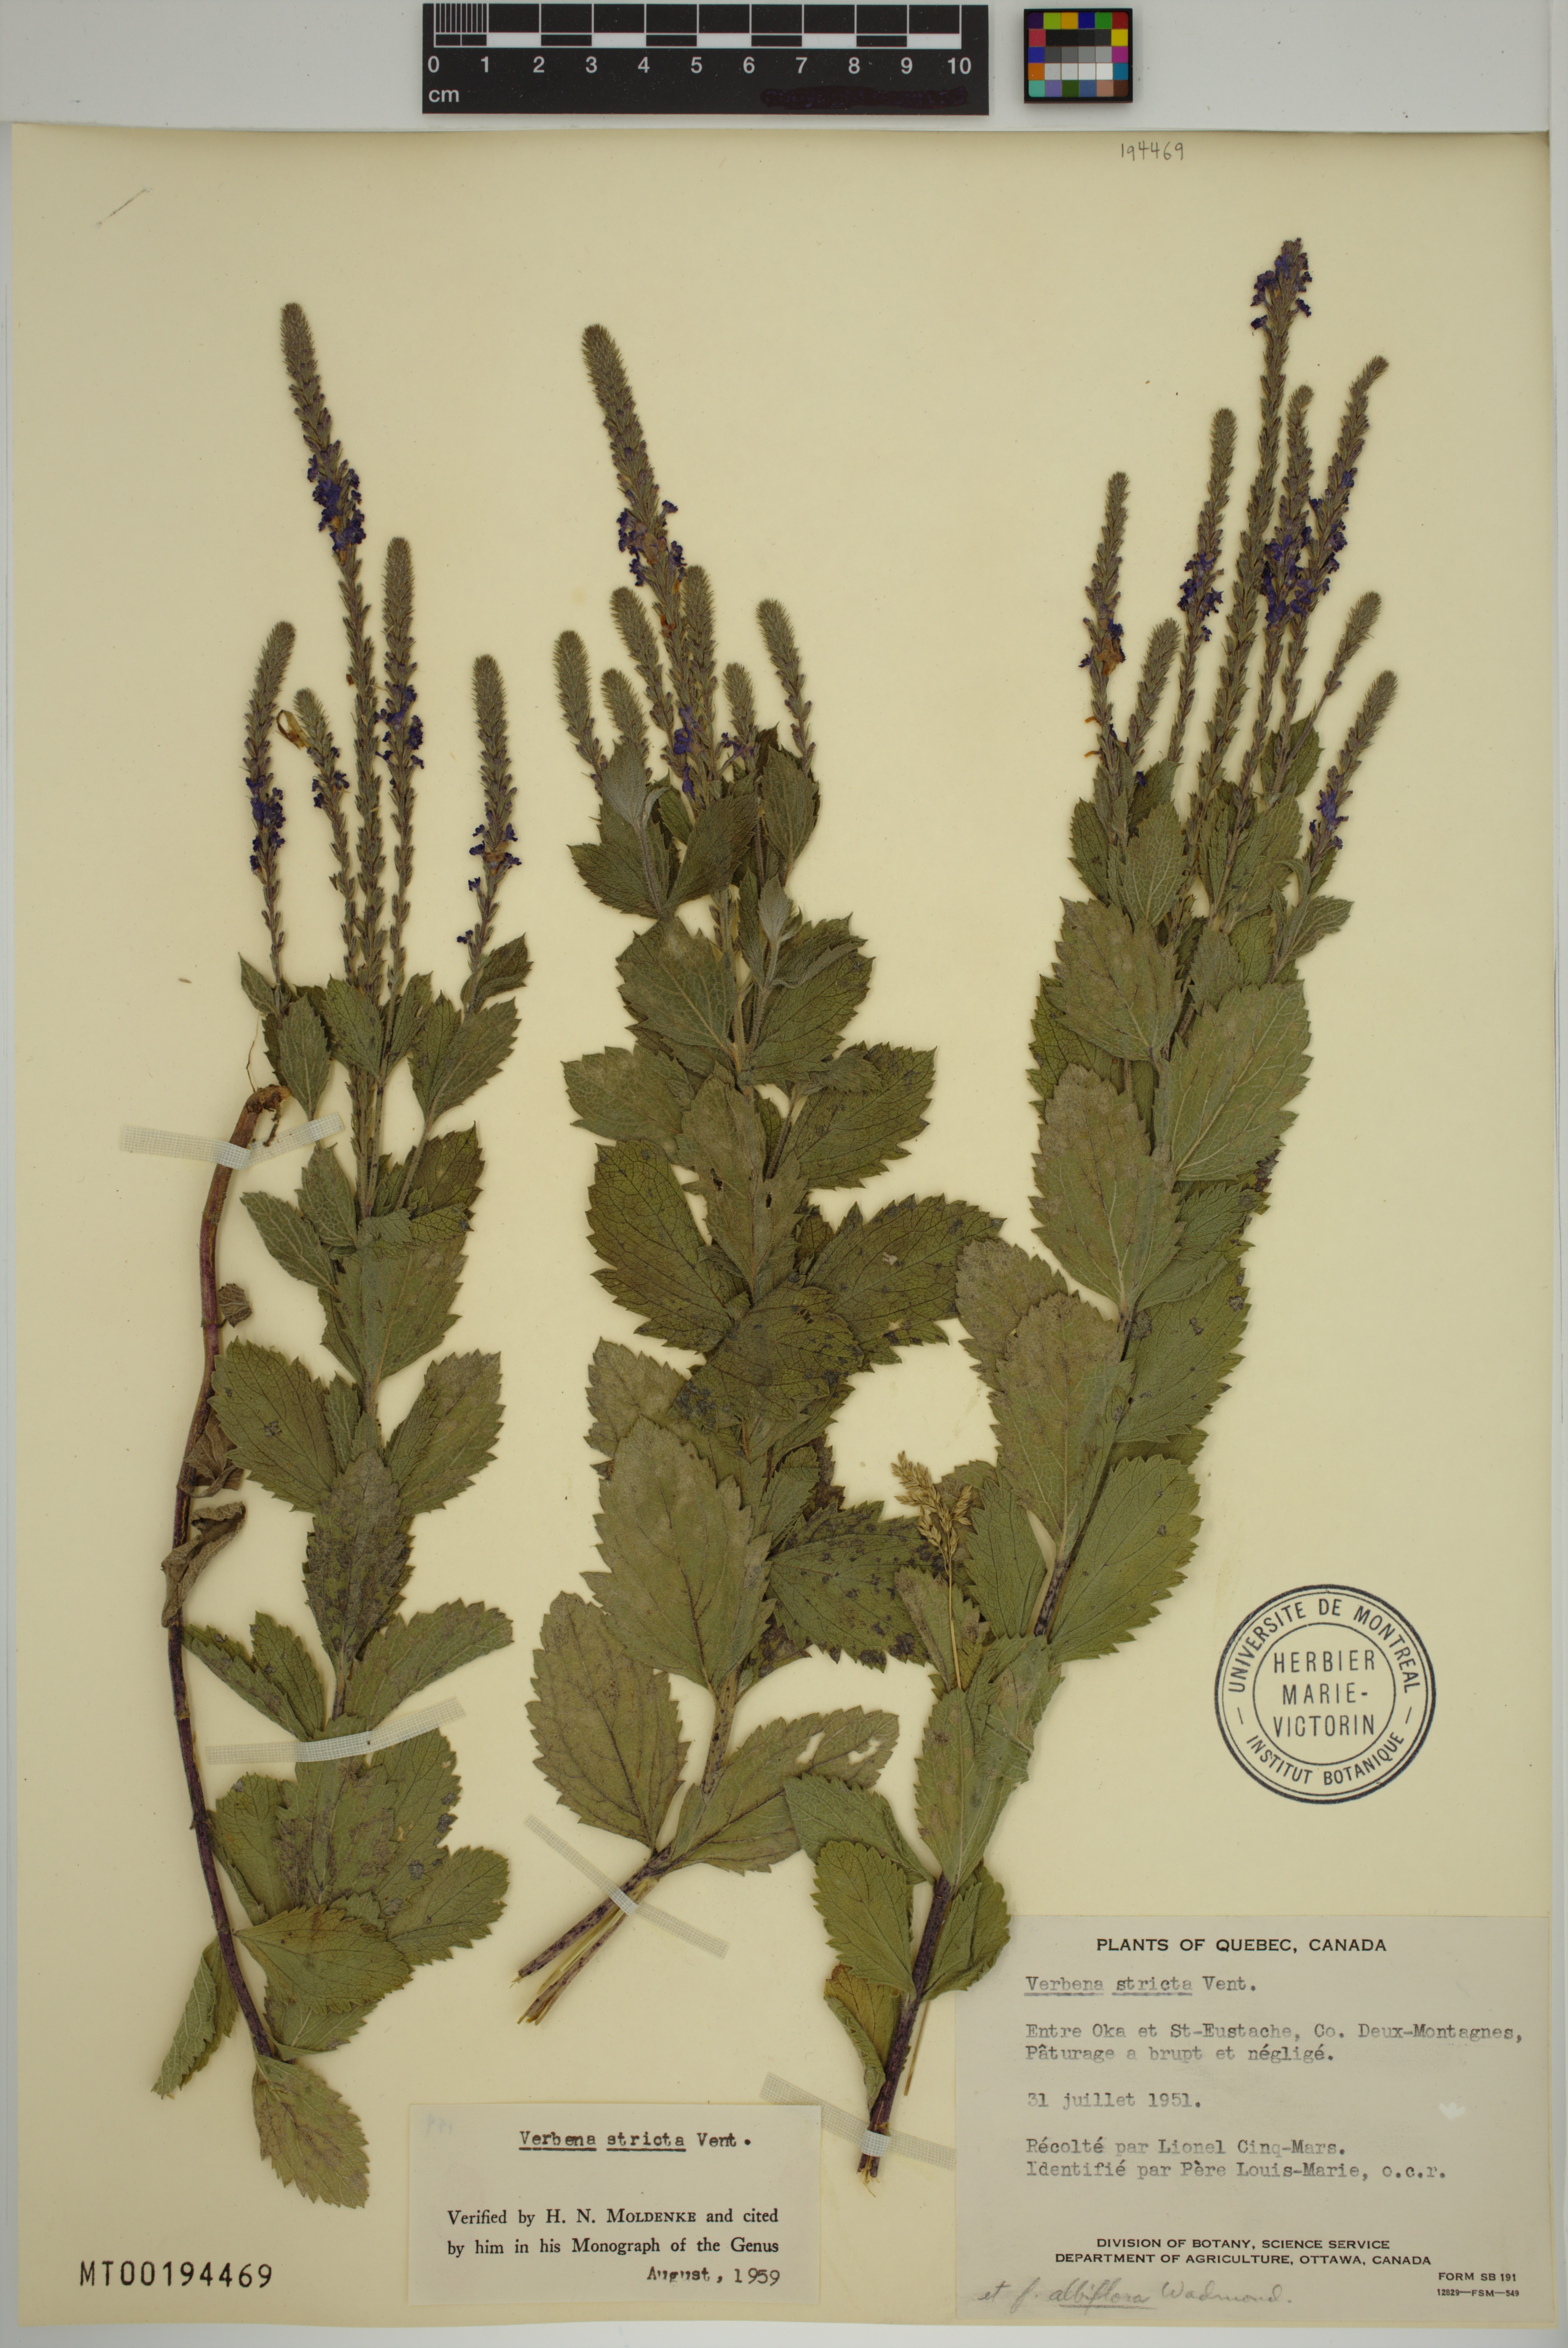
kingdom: Plantae
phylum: Tracheophyta
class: Magnoliopsida
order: Lamiales
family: Verbenaceae
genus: Verbena
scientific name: Verbena stricta
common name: Hoary vervain
